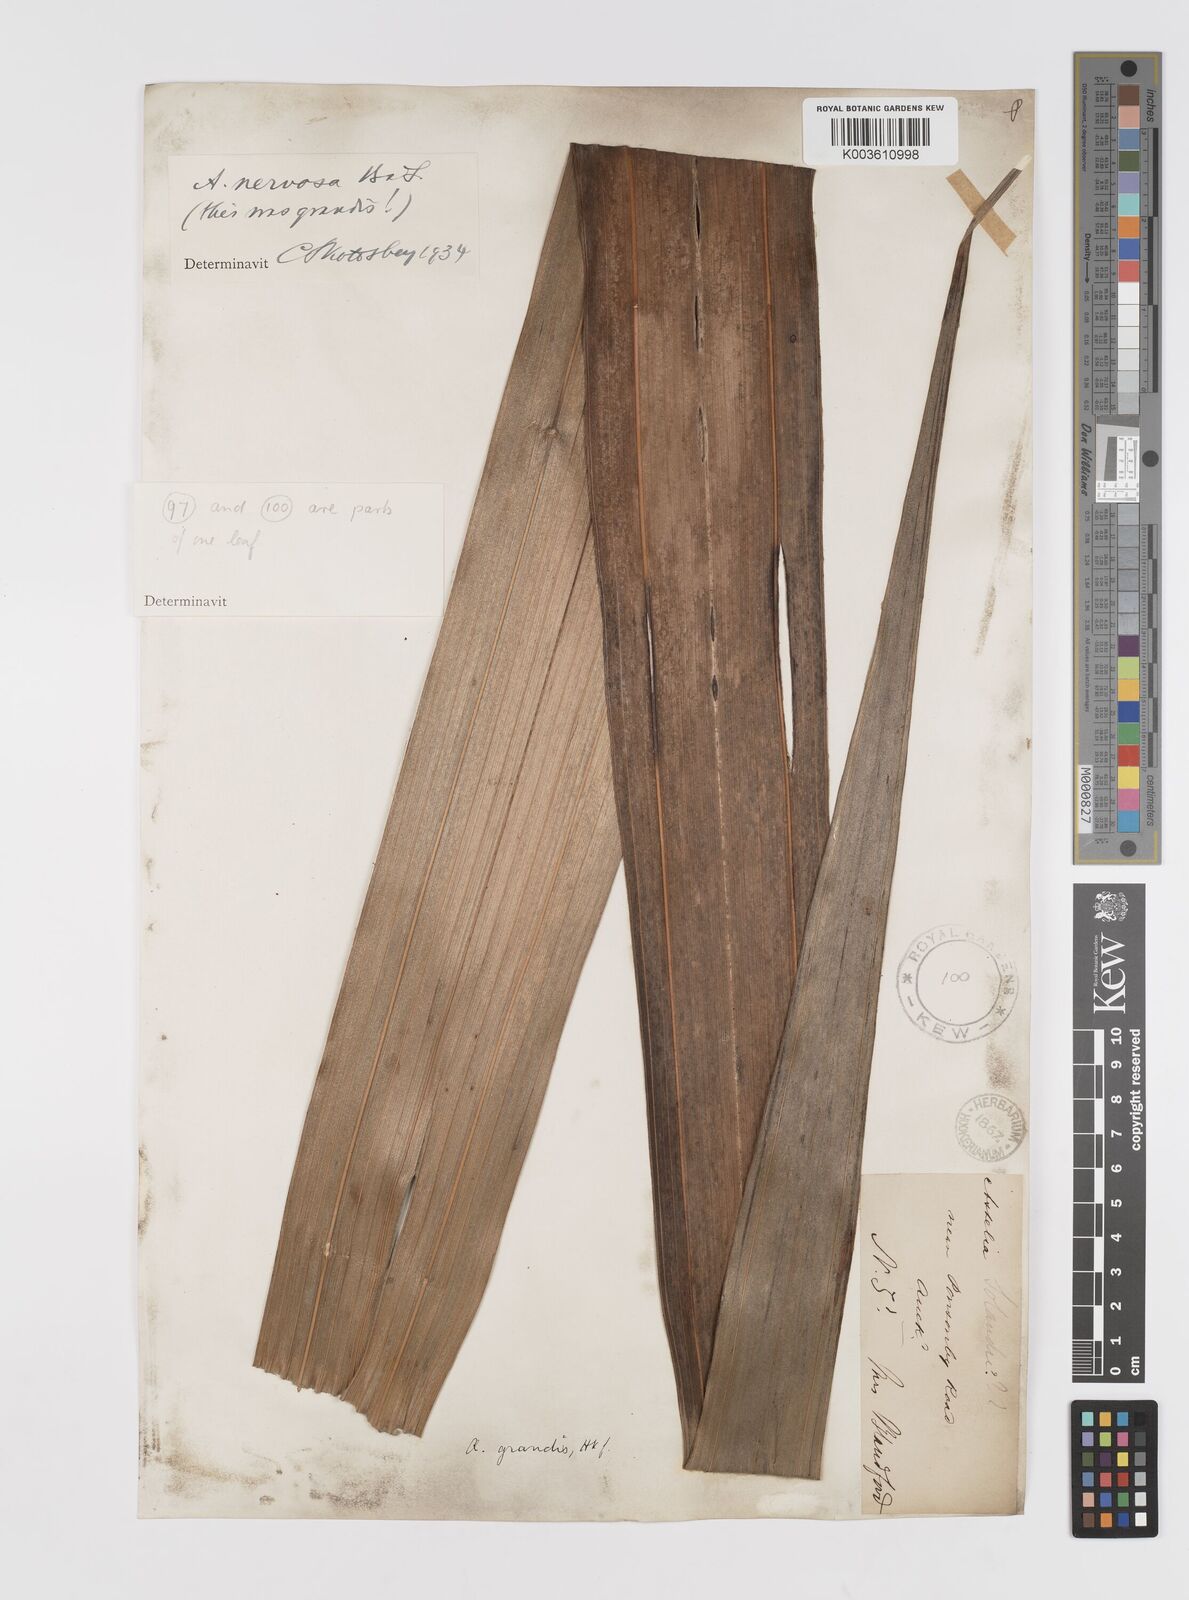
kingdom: Plantae
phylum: Tracheophyta
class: Liliopsida
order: Asparagales
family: Asteliaceae
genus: Astelia
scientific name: Astelia nervosa
